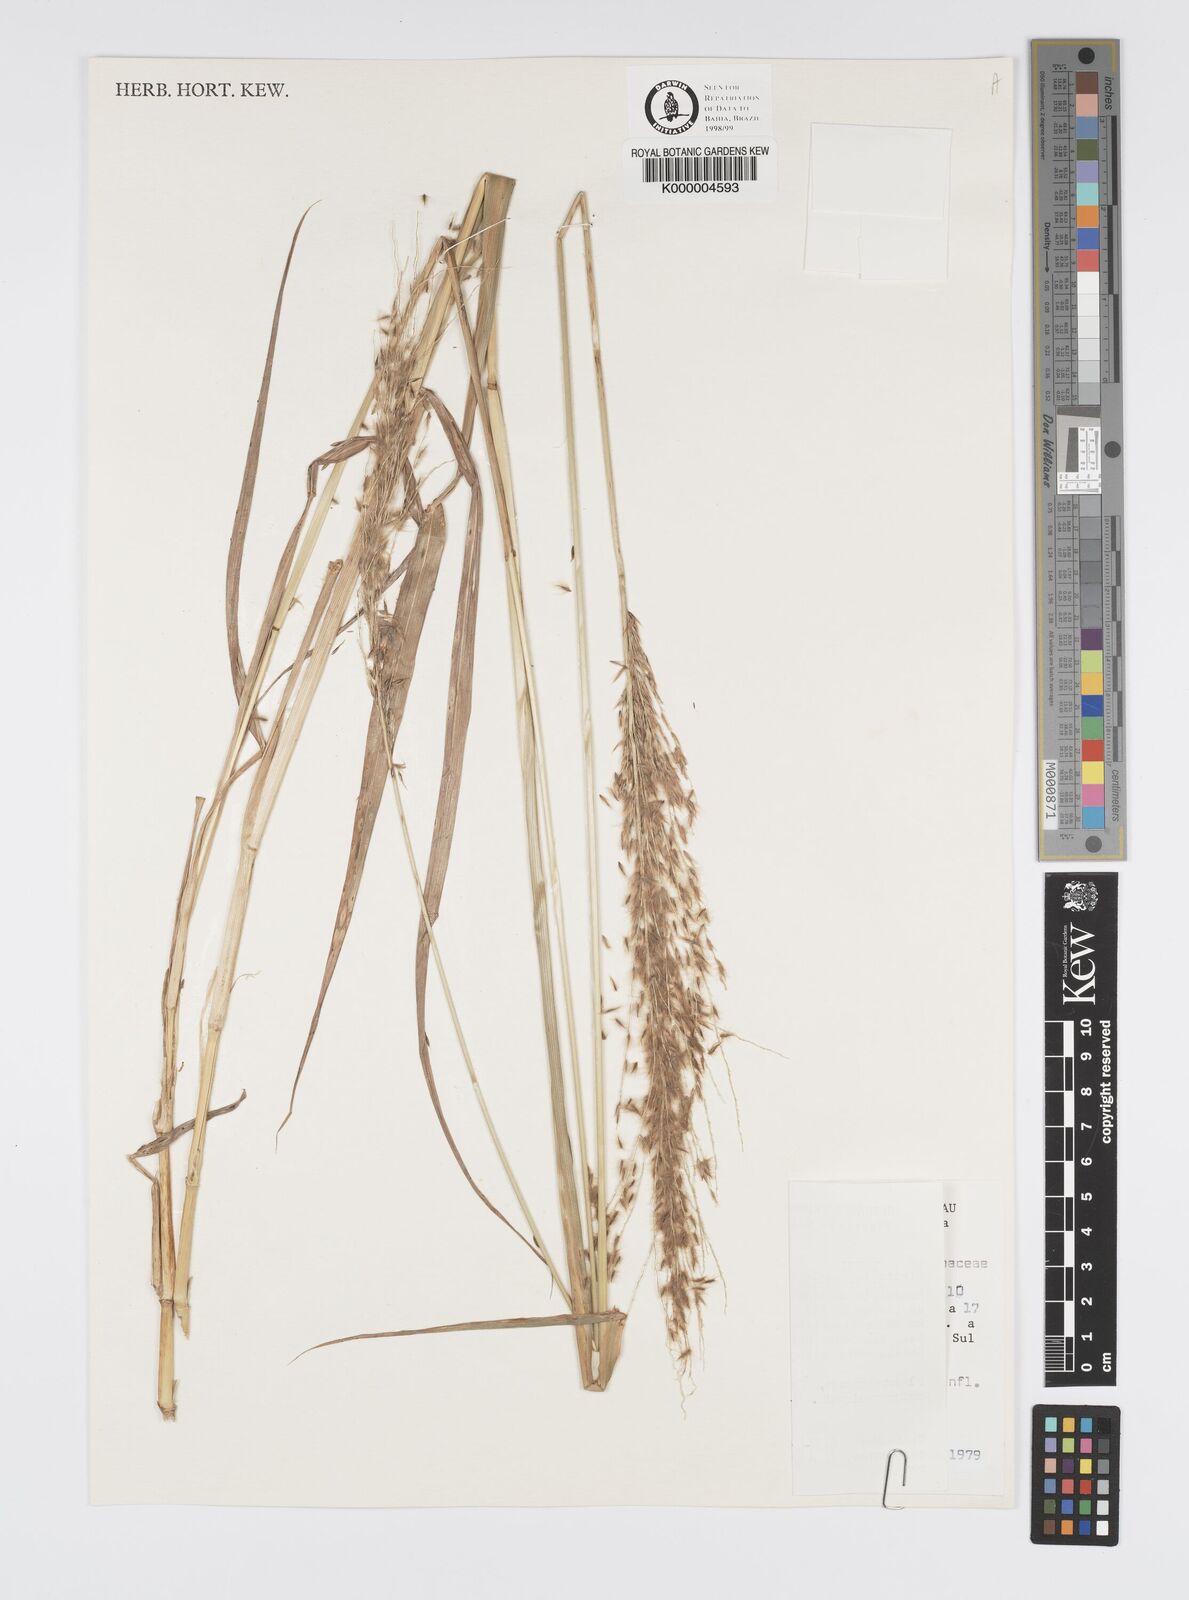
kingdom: Plantae
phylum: Tracheophyta
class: Liliopsida
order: Poales
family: Poaceae
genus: Digitaria
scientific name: Digitaria
